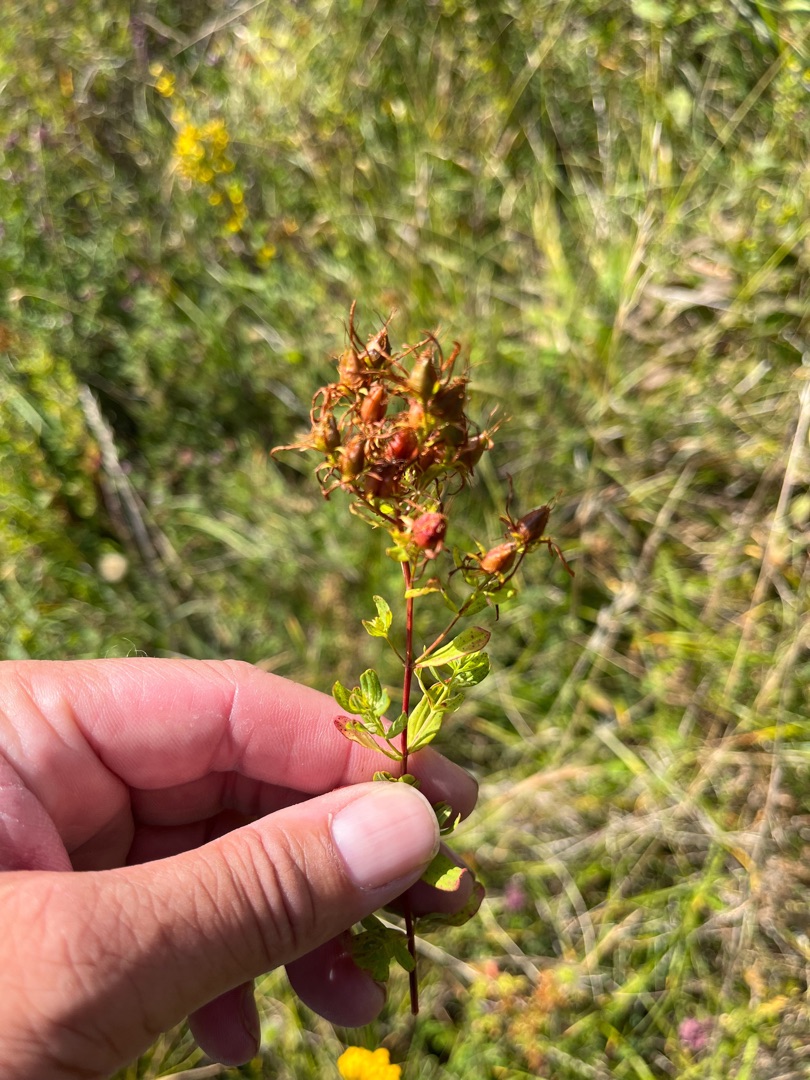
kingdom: Plantae
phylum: Tracheophyta
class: Magnoliopsida
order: Malpighiales
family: Hypericaceae
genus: Hypericum
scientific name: Hypericum perforatum
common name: Prikbladet perikon
